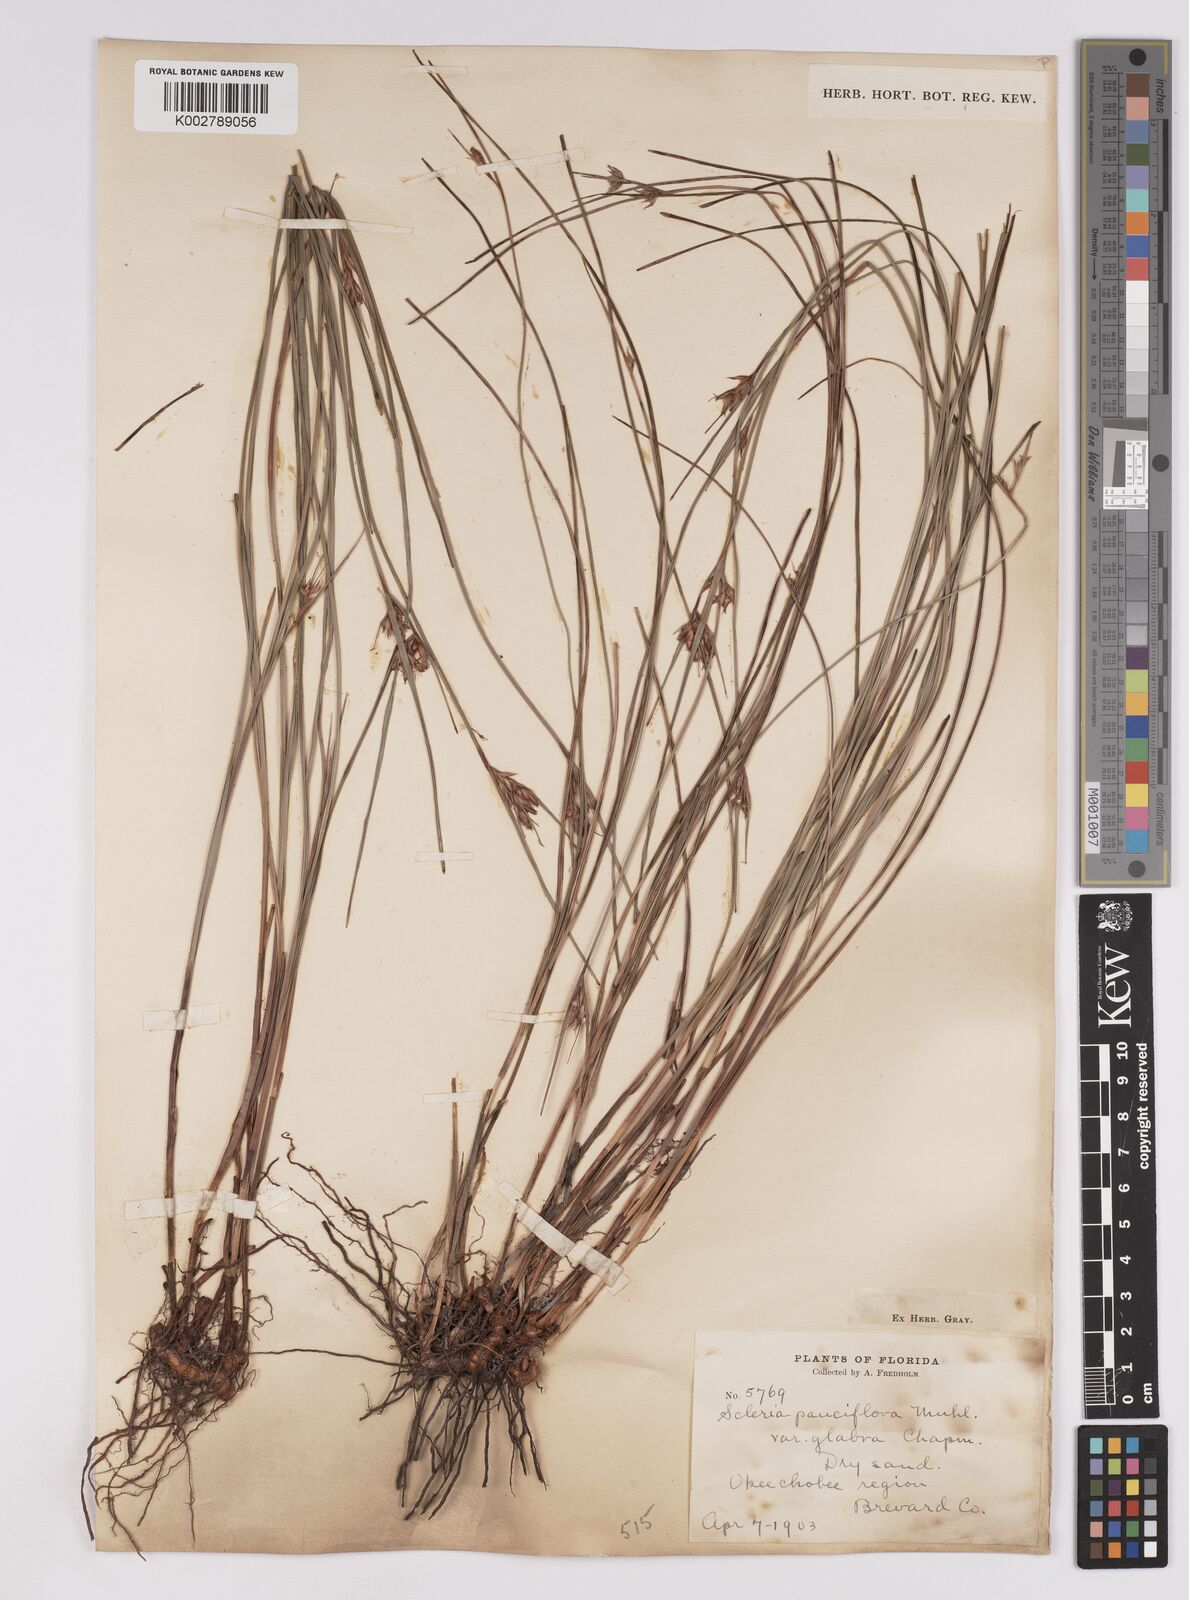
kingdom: Plantae
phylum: Tracheophyta
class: Liliopsida
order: Poales
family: Cyperaceae
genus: Scleria
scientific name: Scleria ciliata
